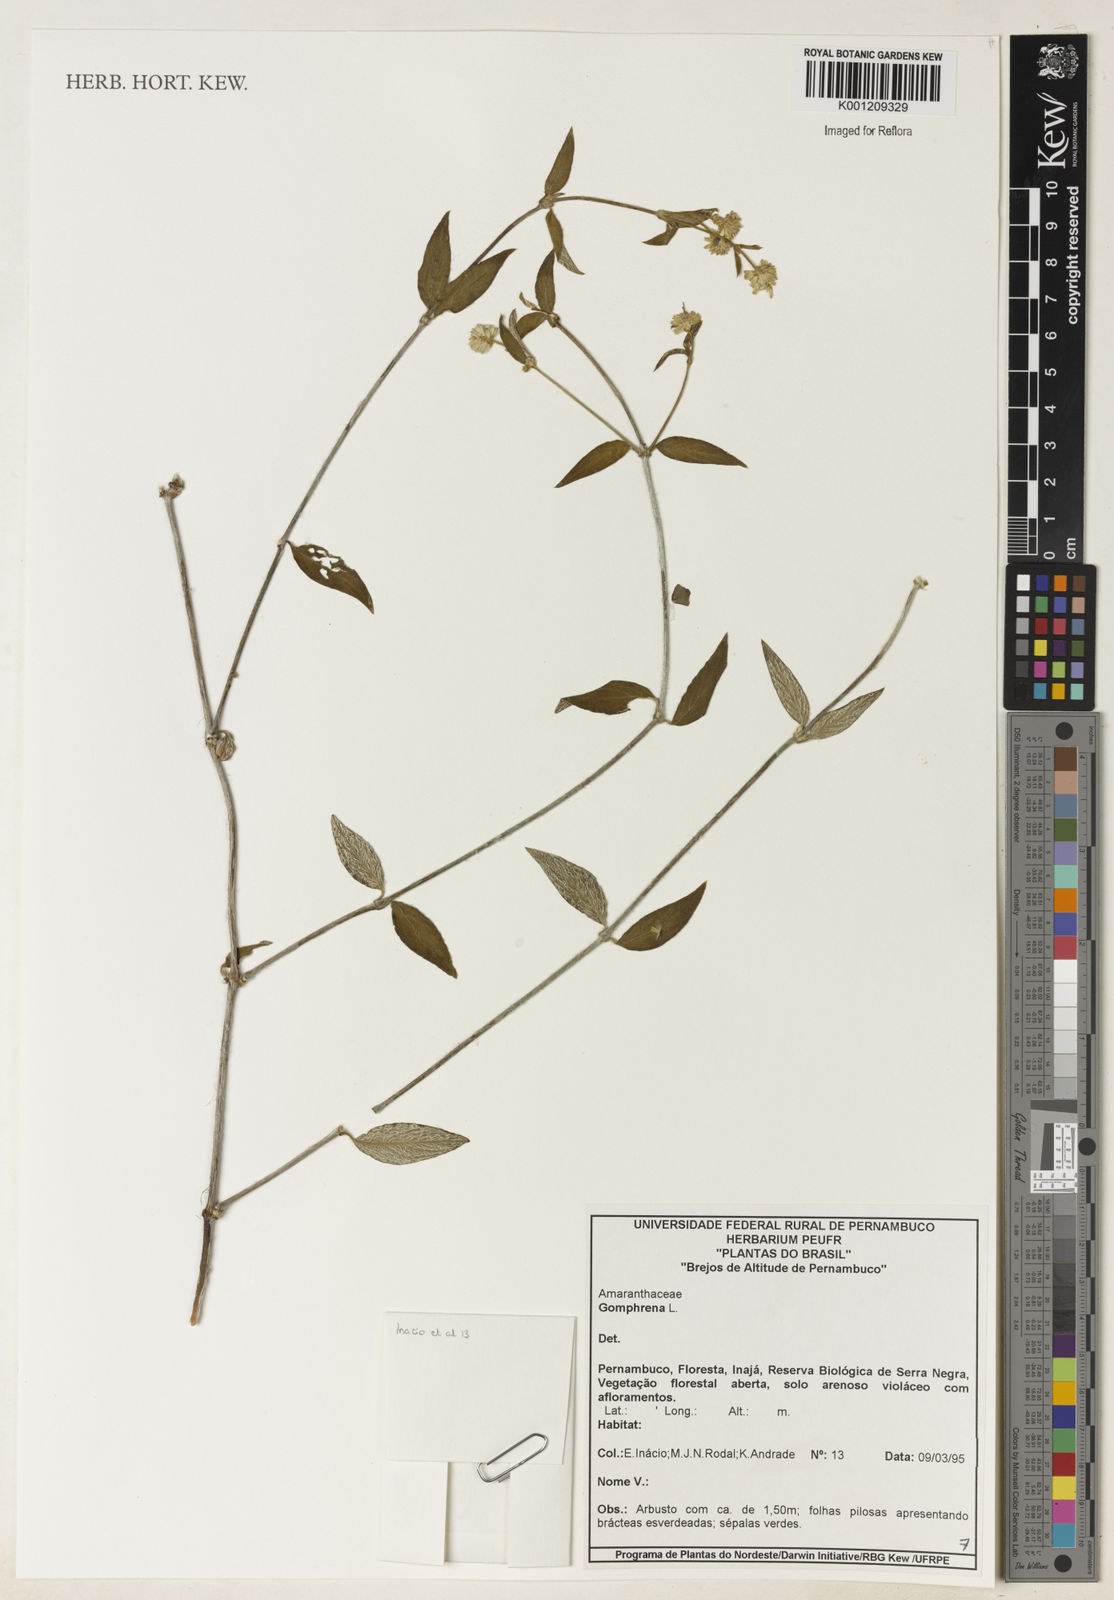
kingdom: Plantae
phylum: Tracheophyta
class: Magnoliopsida
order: Caryophyllales
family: Amaranthaceae
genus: Gomphrena
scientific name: Gomphrena
